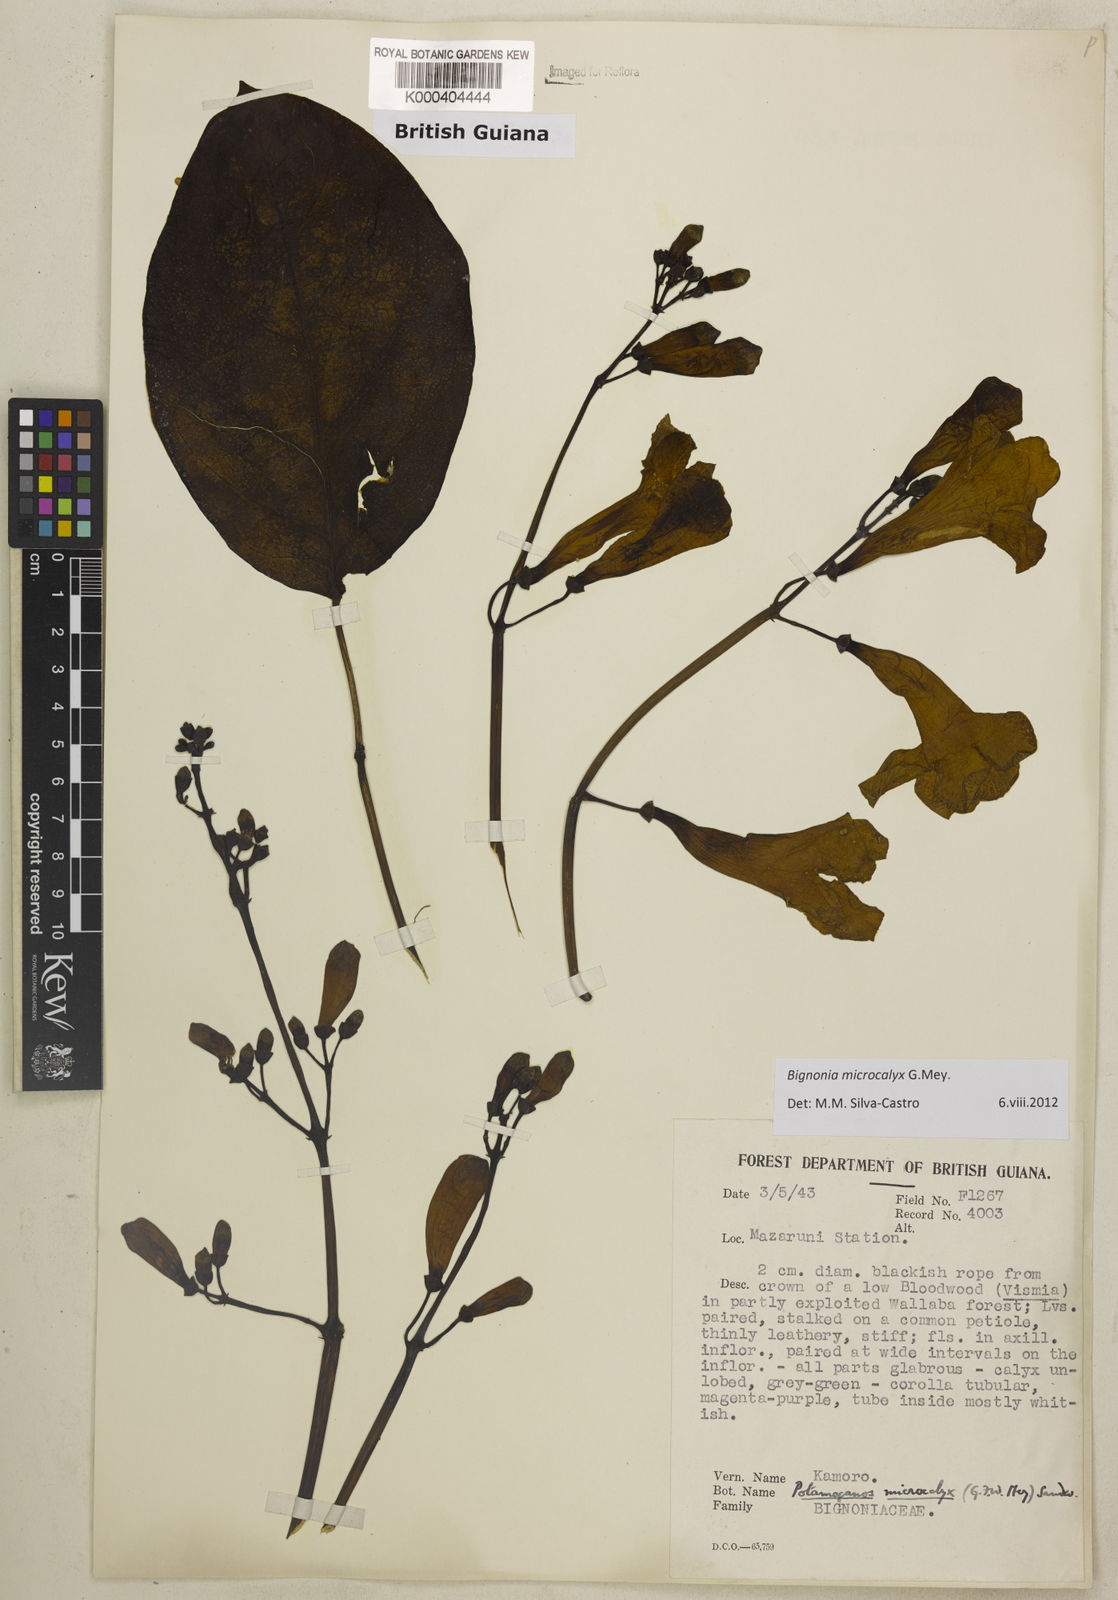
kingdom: Plantae
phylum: Tracheophyta
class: Magnoliopsida
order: Lamiales
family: Bignoniaceae
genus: Bignonia
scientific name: Bignonia microcalyx
